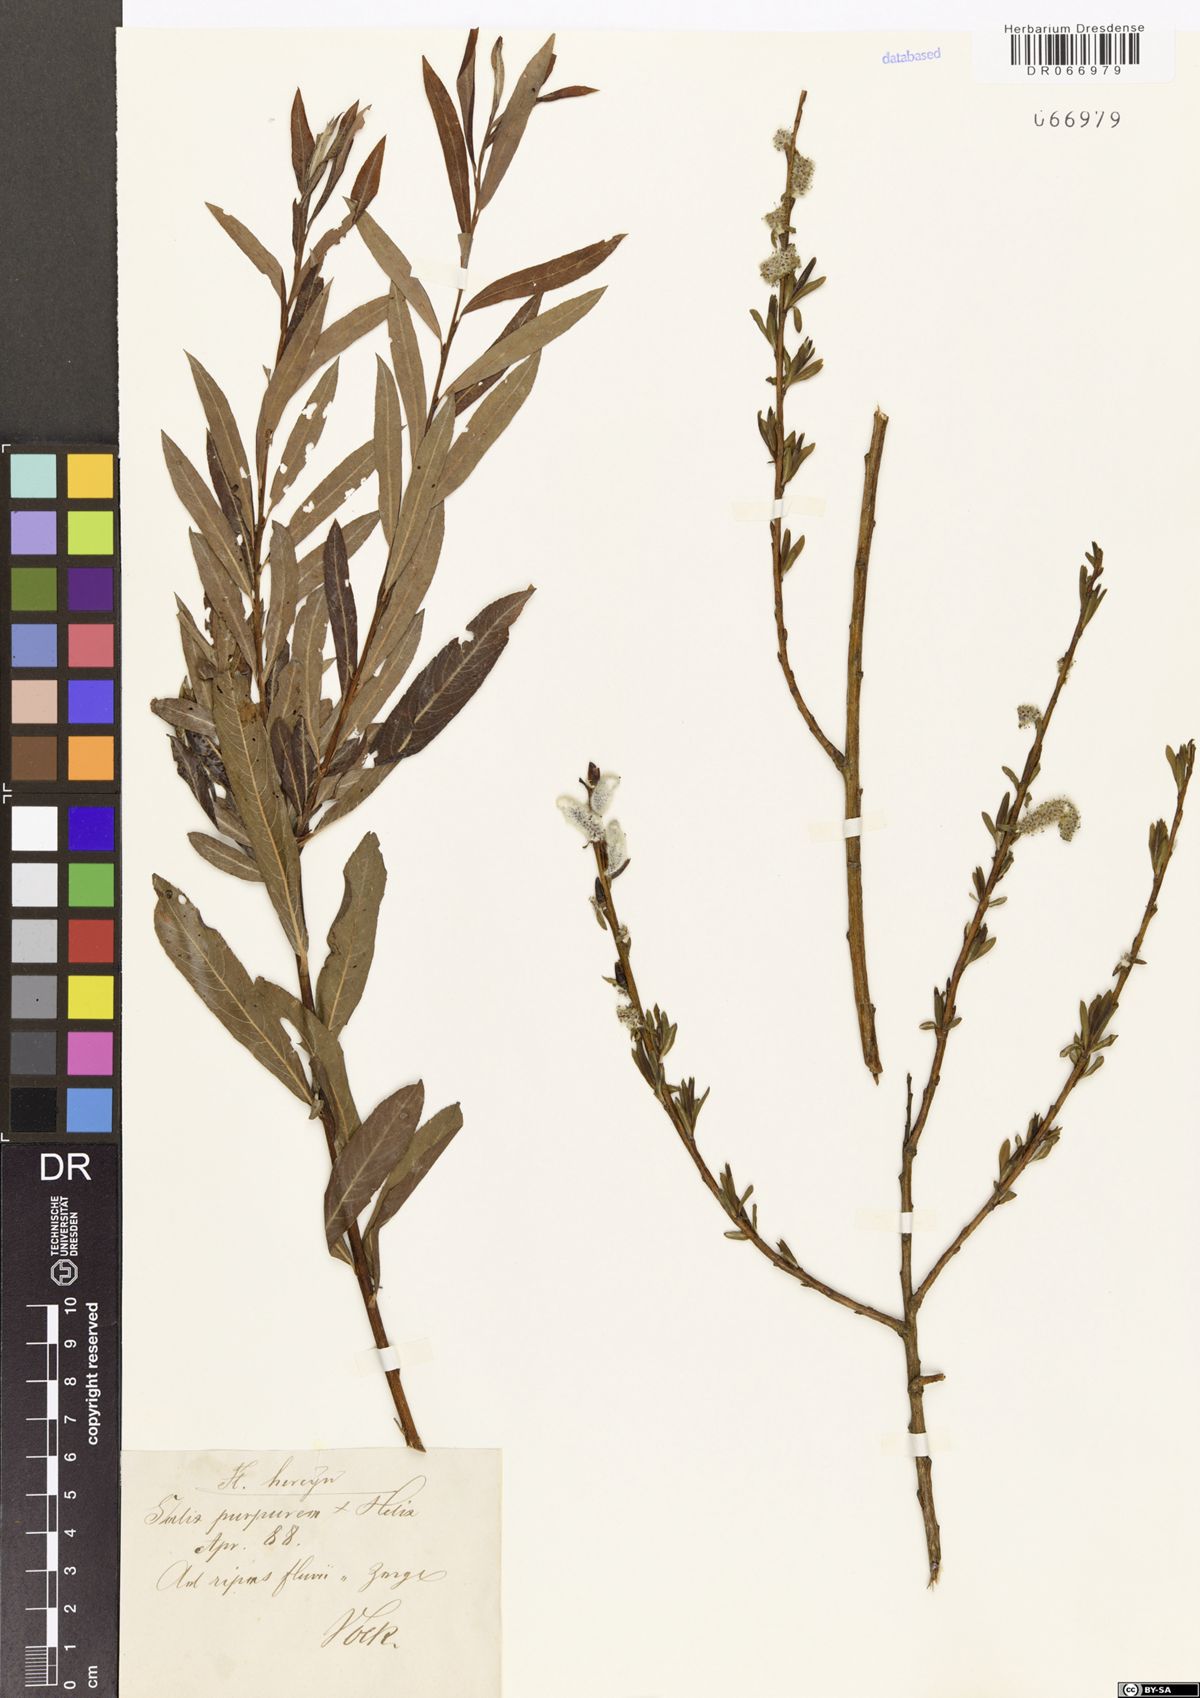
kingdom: Plantae
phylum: Tracheophyta
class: Magnoliopsida
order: Malpighiales
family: Salicaceae
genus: Salix
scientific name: Salix purpurea
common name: Purple willow
